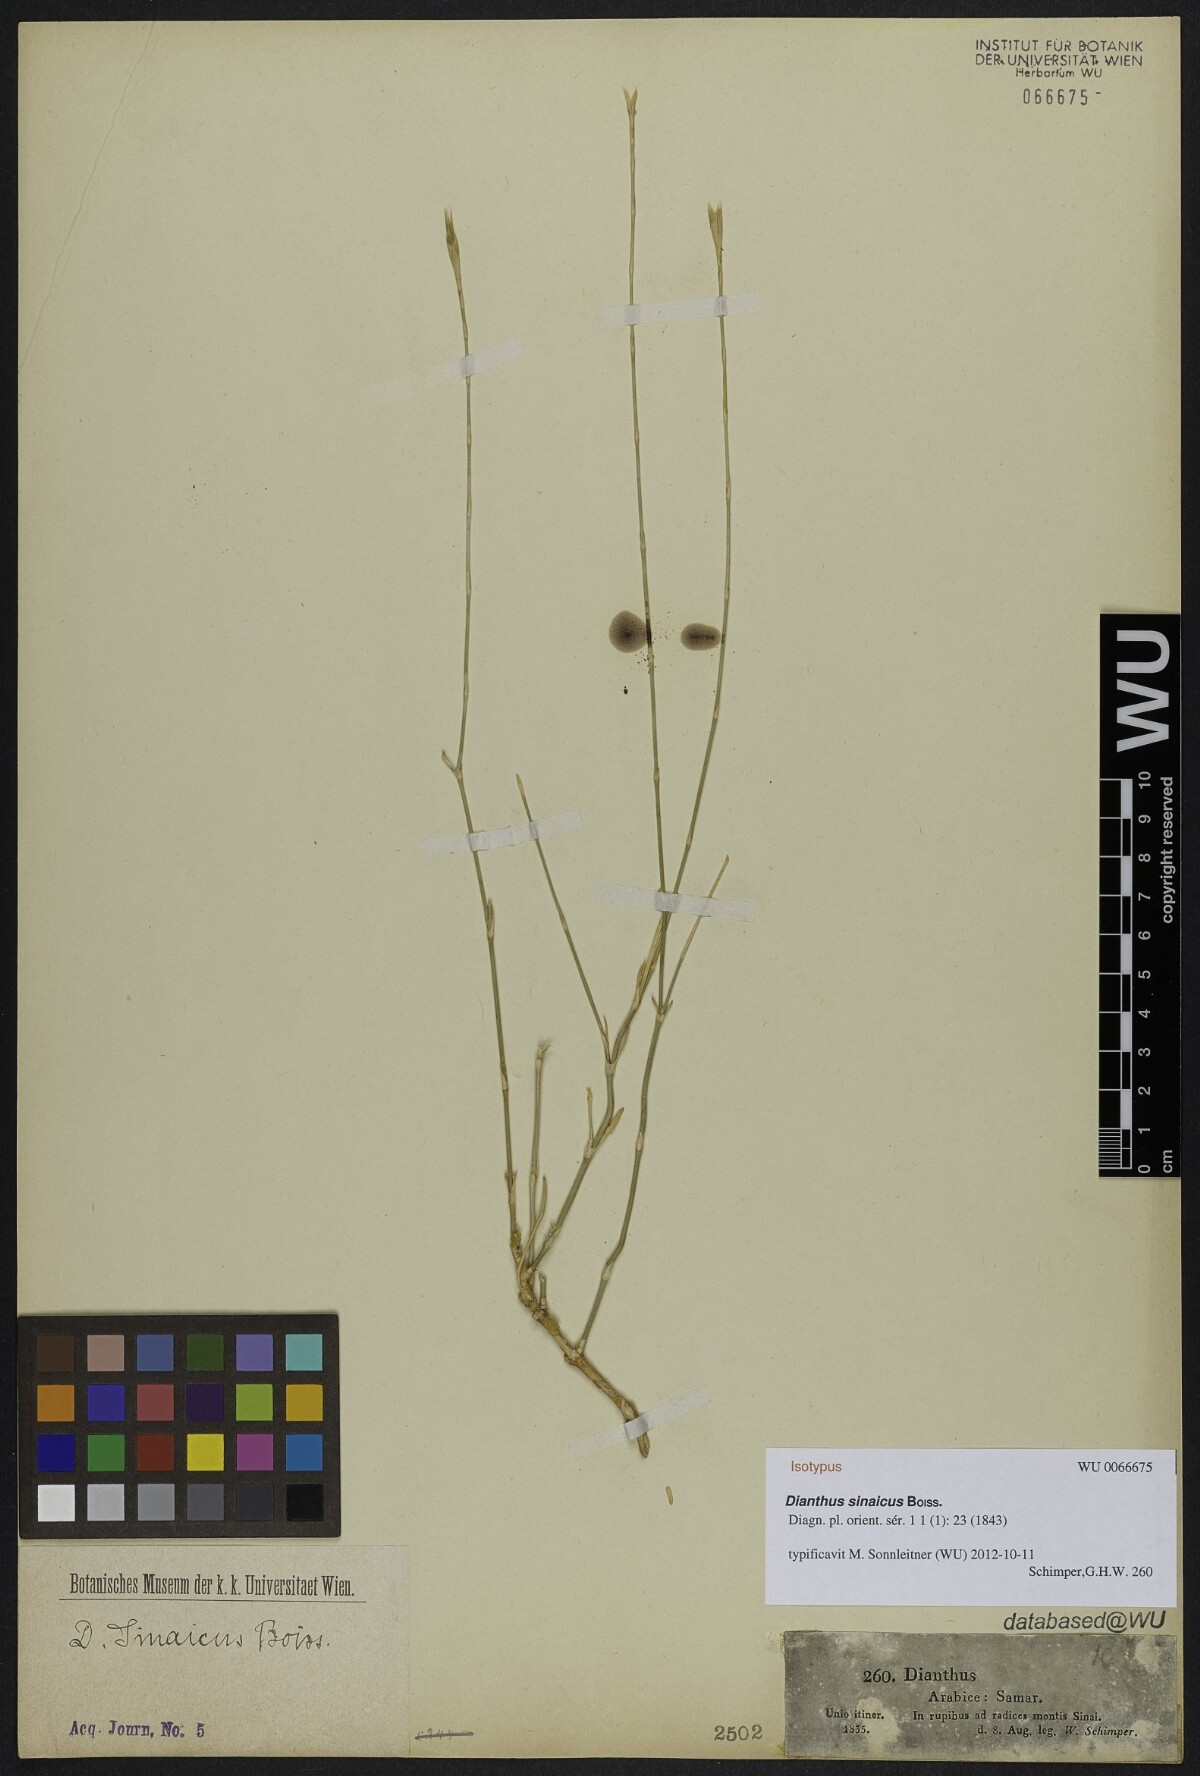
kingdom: Plantae
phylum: Tracheophyta
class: Magnoliopsida
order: Caryophyllales
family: Caryophyllaceae
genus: Dianthus
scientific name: Dianthus sinaicus
